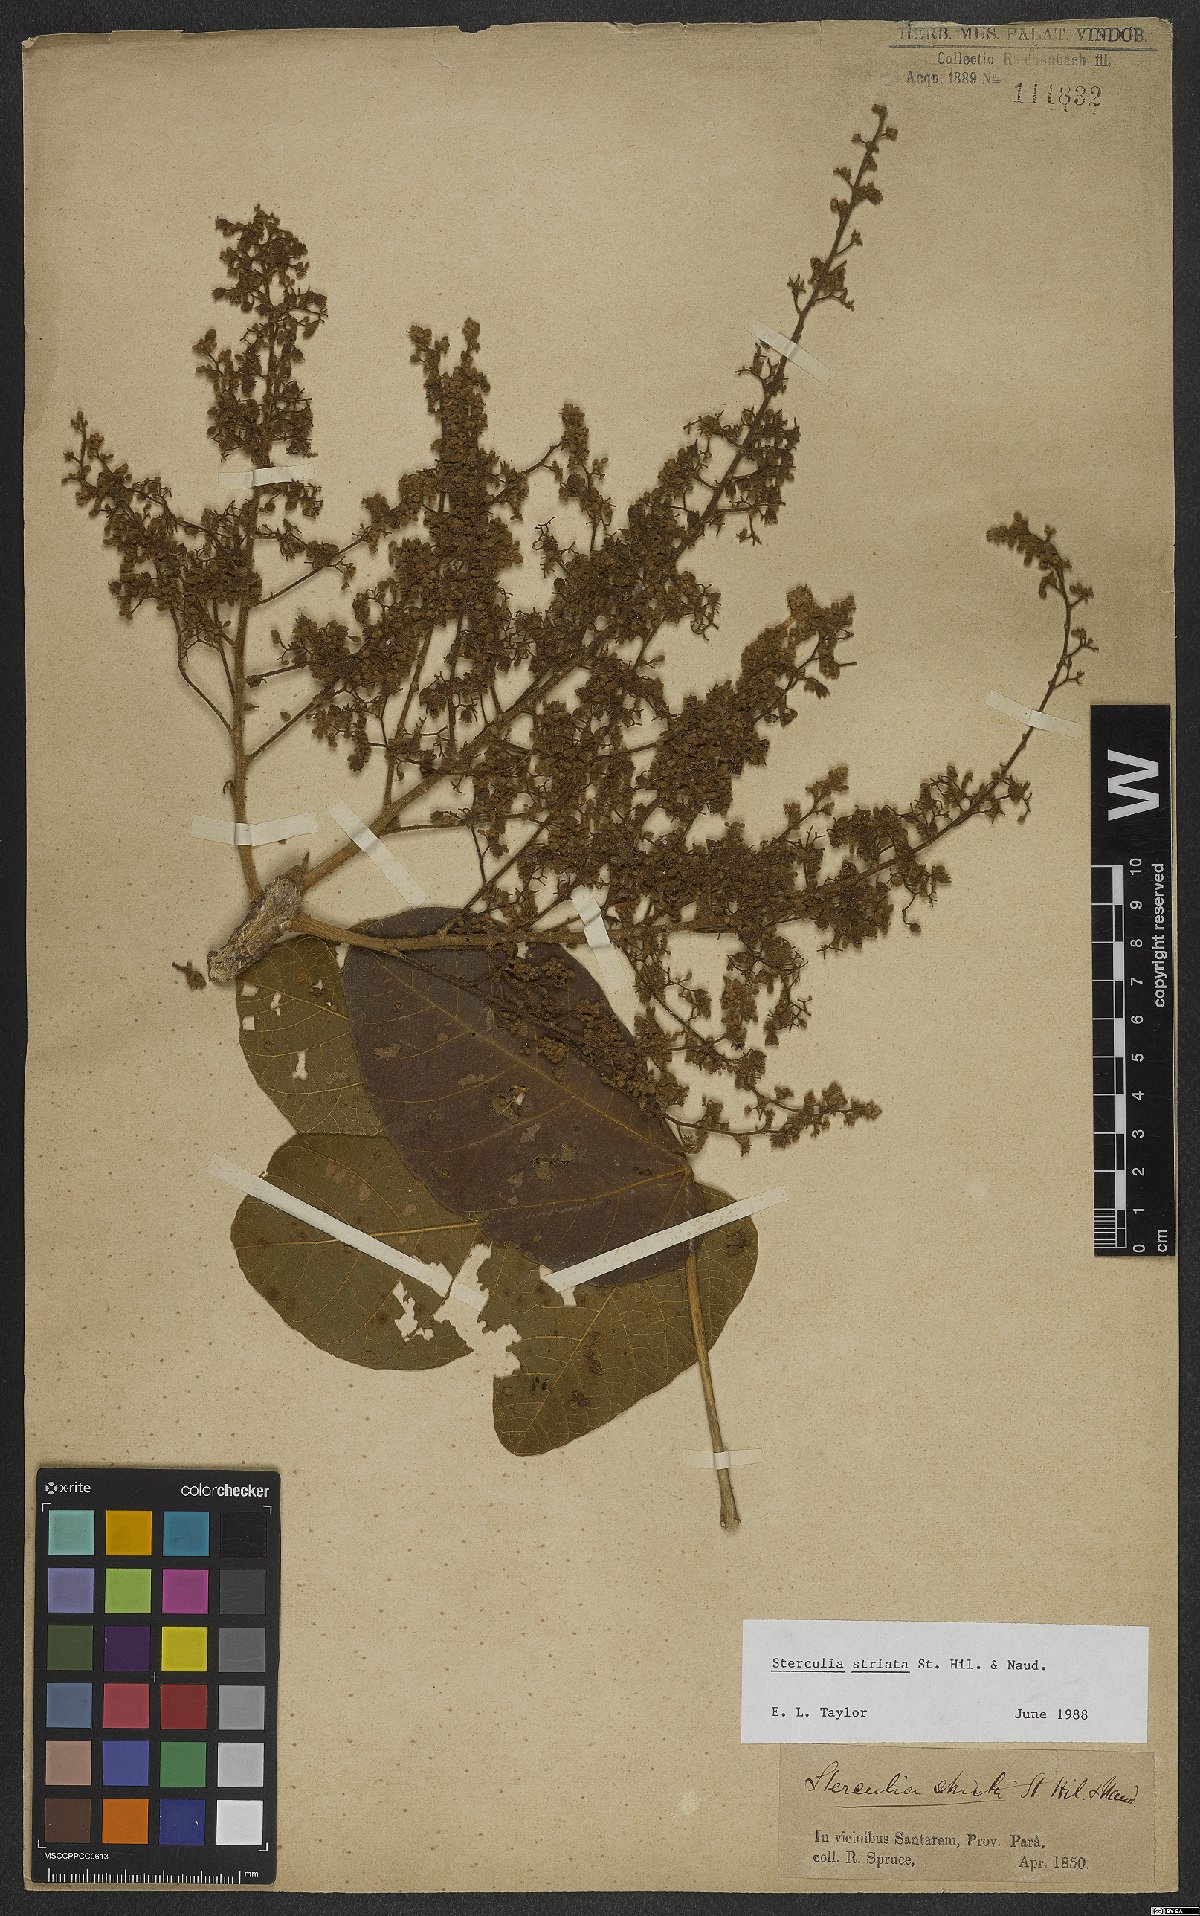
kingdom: Plantae
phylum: Tracheophyta
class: Magnoliopsida
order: Malvales
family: Malvaceae
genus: Sterculia
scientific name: Sterculia striata
